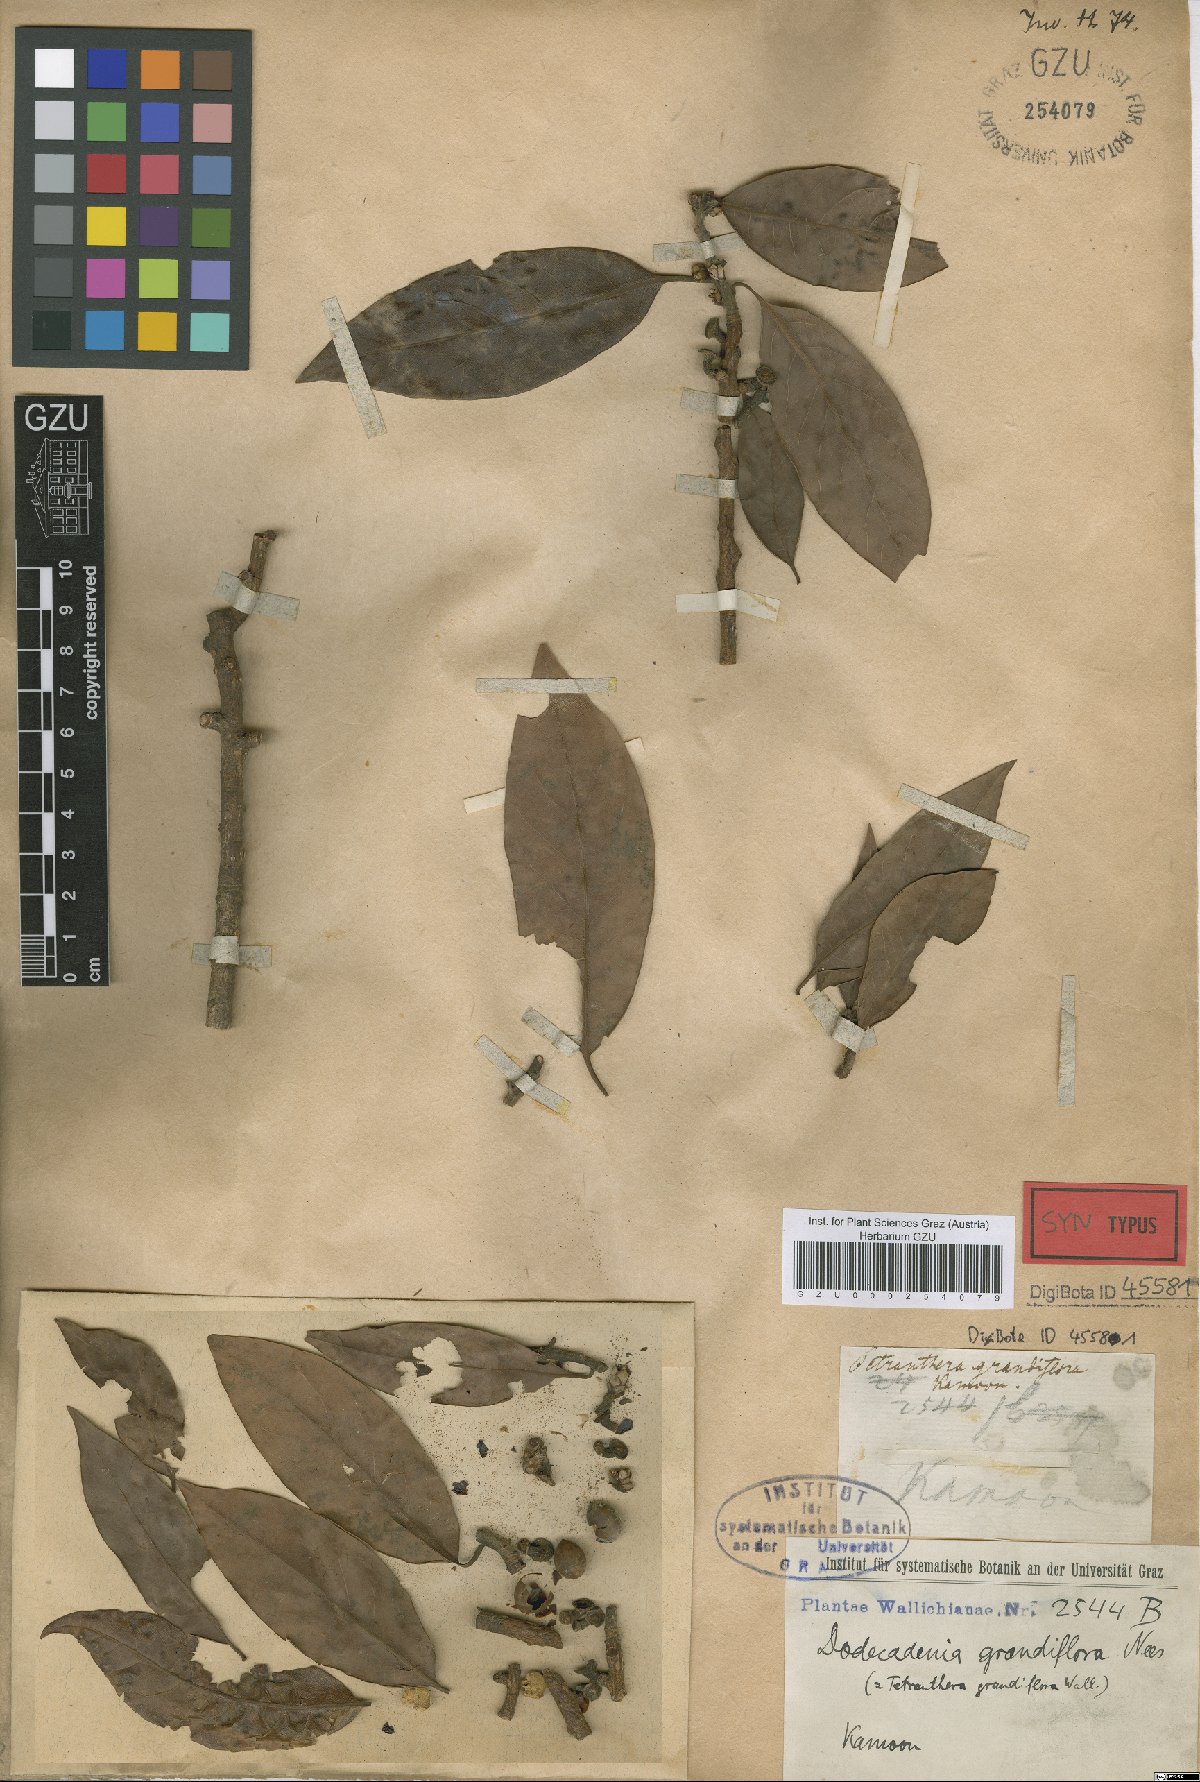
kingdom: Plantae
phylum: Tracheophyta
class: Magnoliopsida
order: Laurales
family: Lauraceae
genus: Dodecadenia
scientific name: Dodecadenia grandiflora
